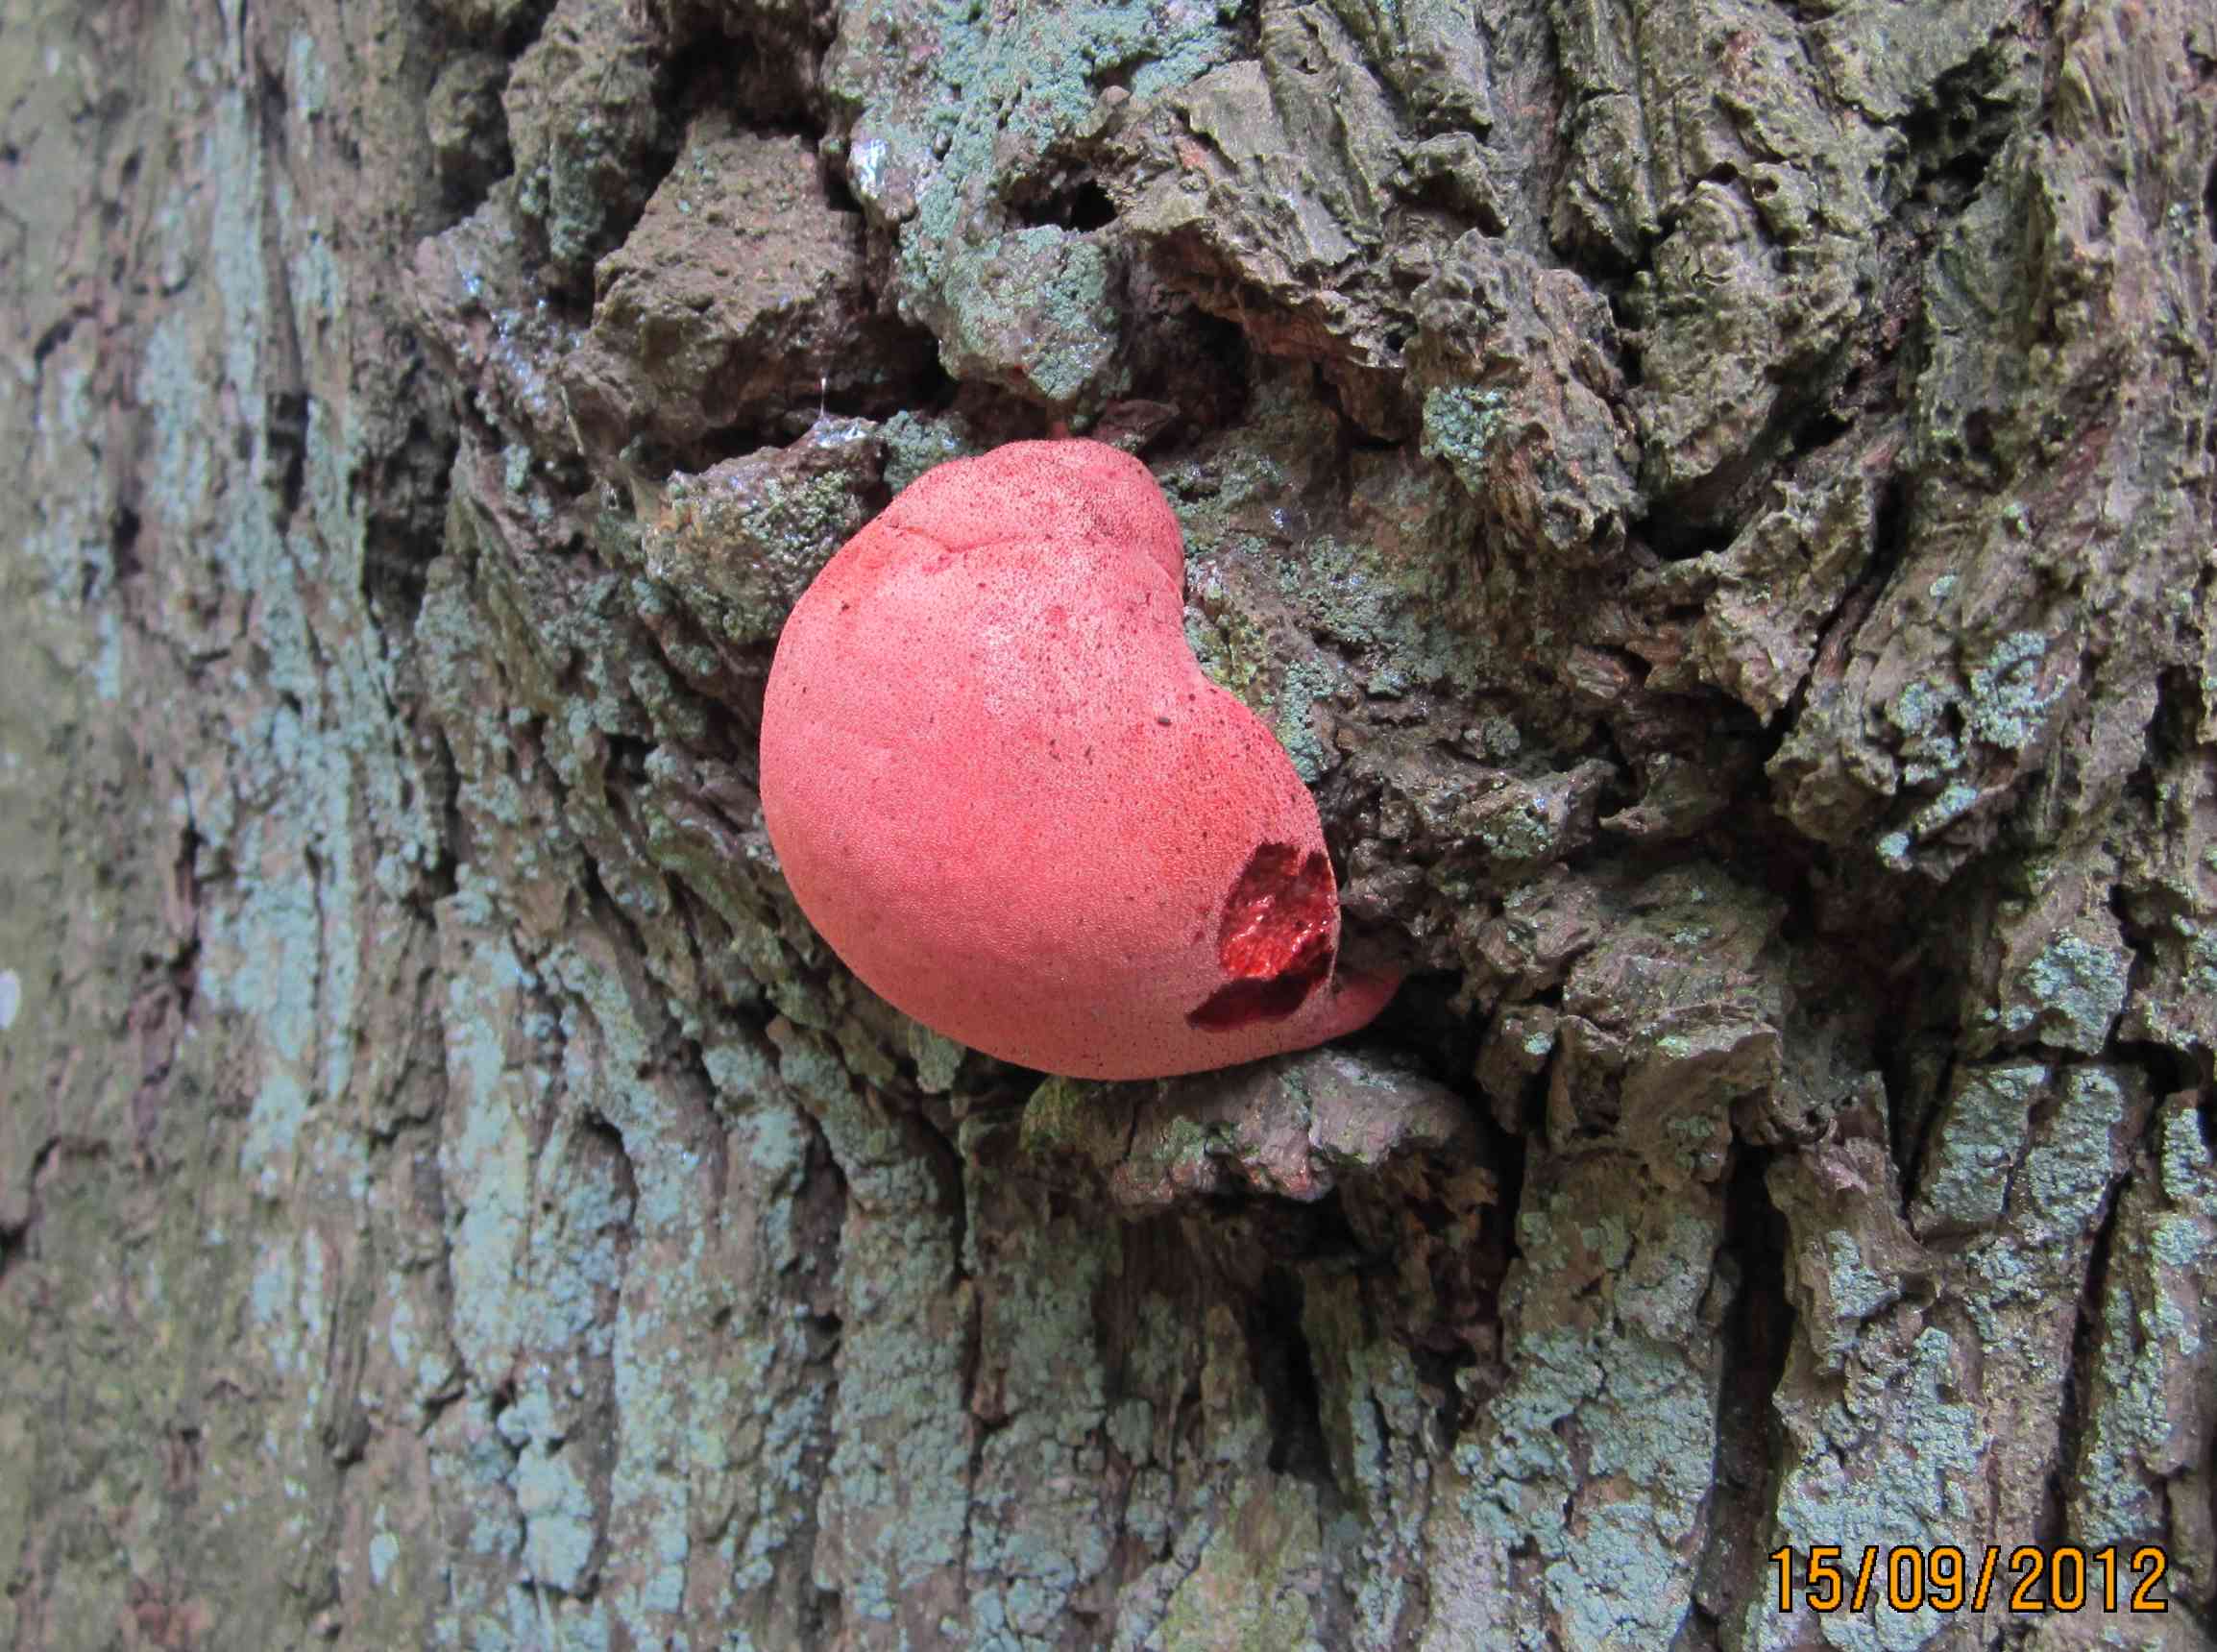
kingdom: Fungi
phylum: Basidiomycota
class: Agaricomycetes
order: Agaricales
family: Fistulinaceae
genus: Fistulina
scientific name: Fistulina hepatica
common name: oksetunge
